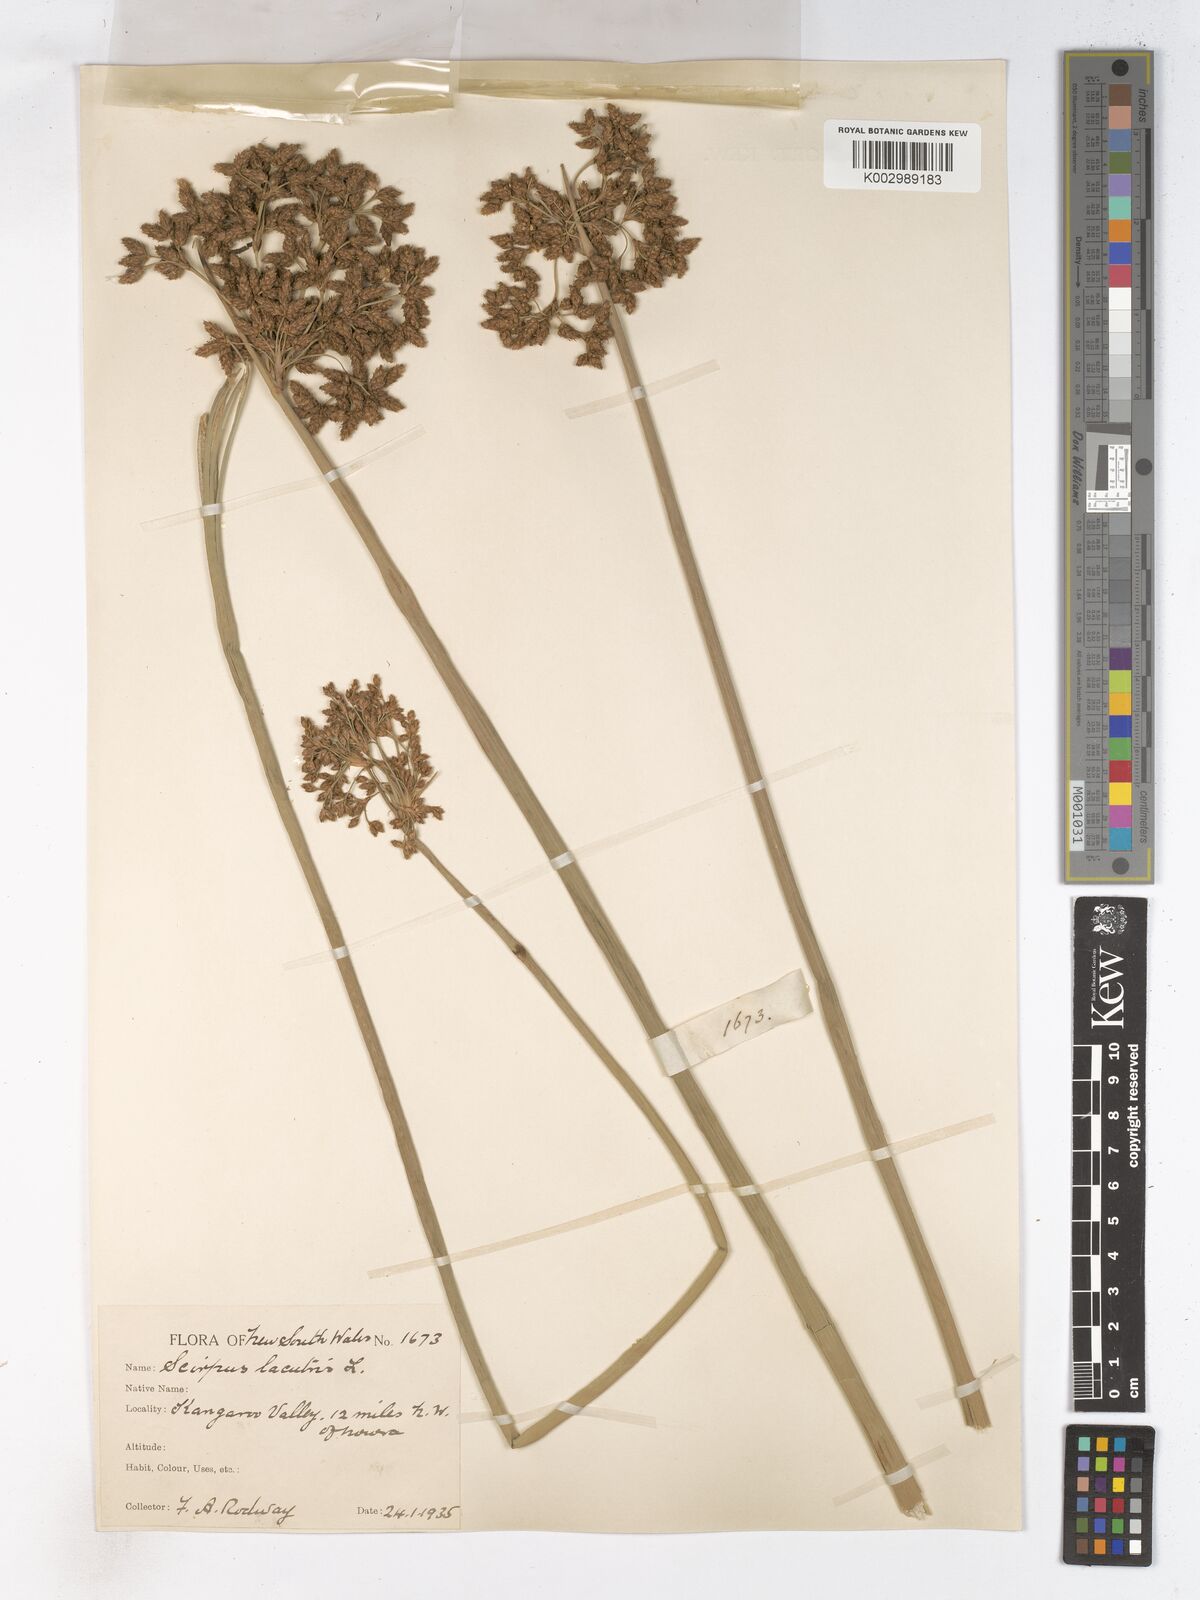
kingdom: Plantae
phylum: Tracheophyta
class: Liliopsida
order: Poales
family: Cyperaceae
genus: Schoenoplectus
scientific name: Schoenoplectus lacustris
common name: Common club-rush
